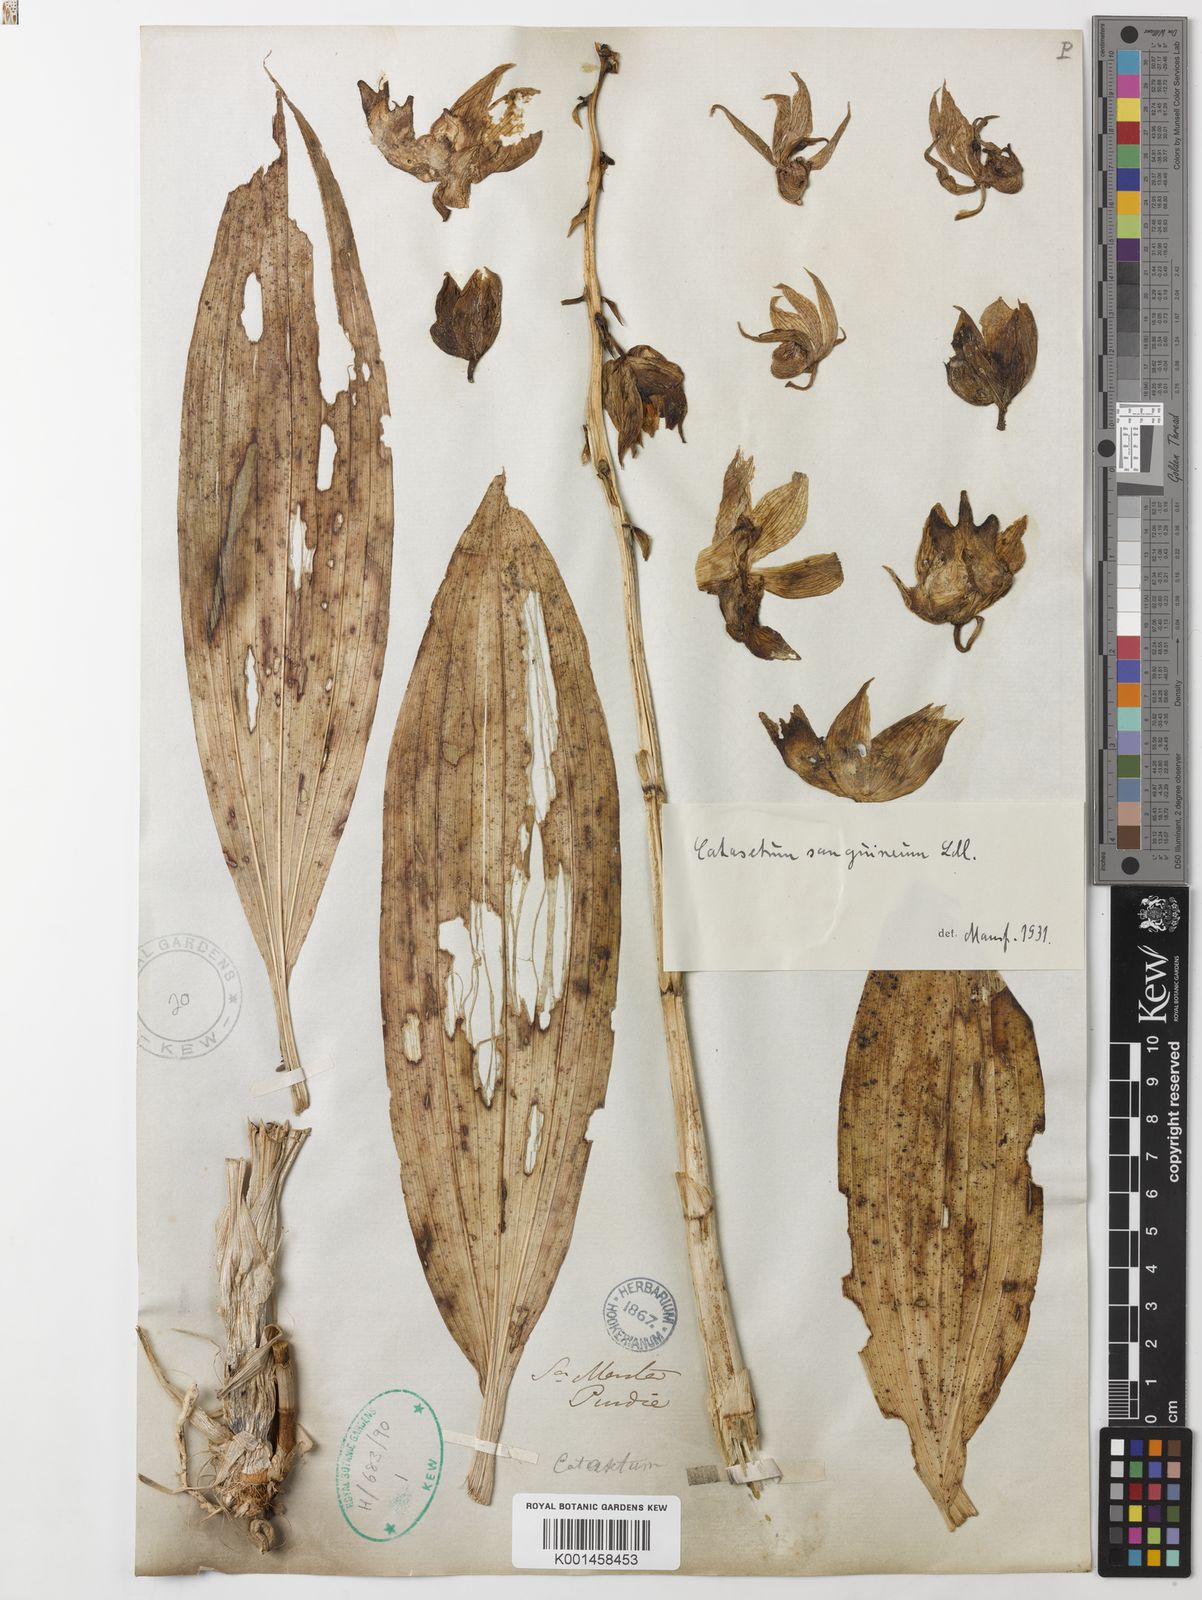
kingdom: Plantae
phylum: Tracheophyta
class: Liliopsida
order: Asparagales
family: Orchidaceae
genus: Catasetum
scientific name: Catasetum sanguineum
